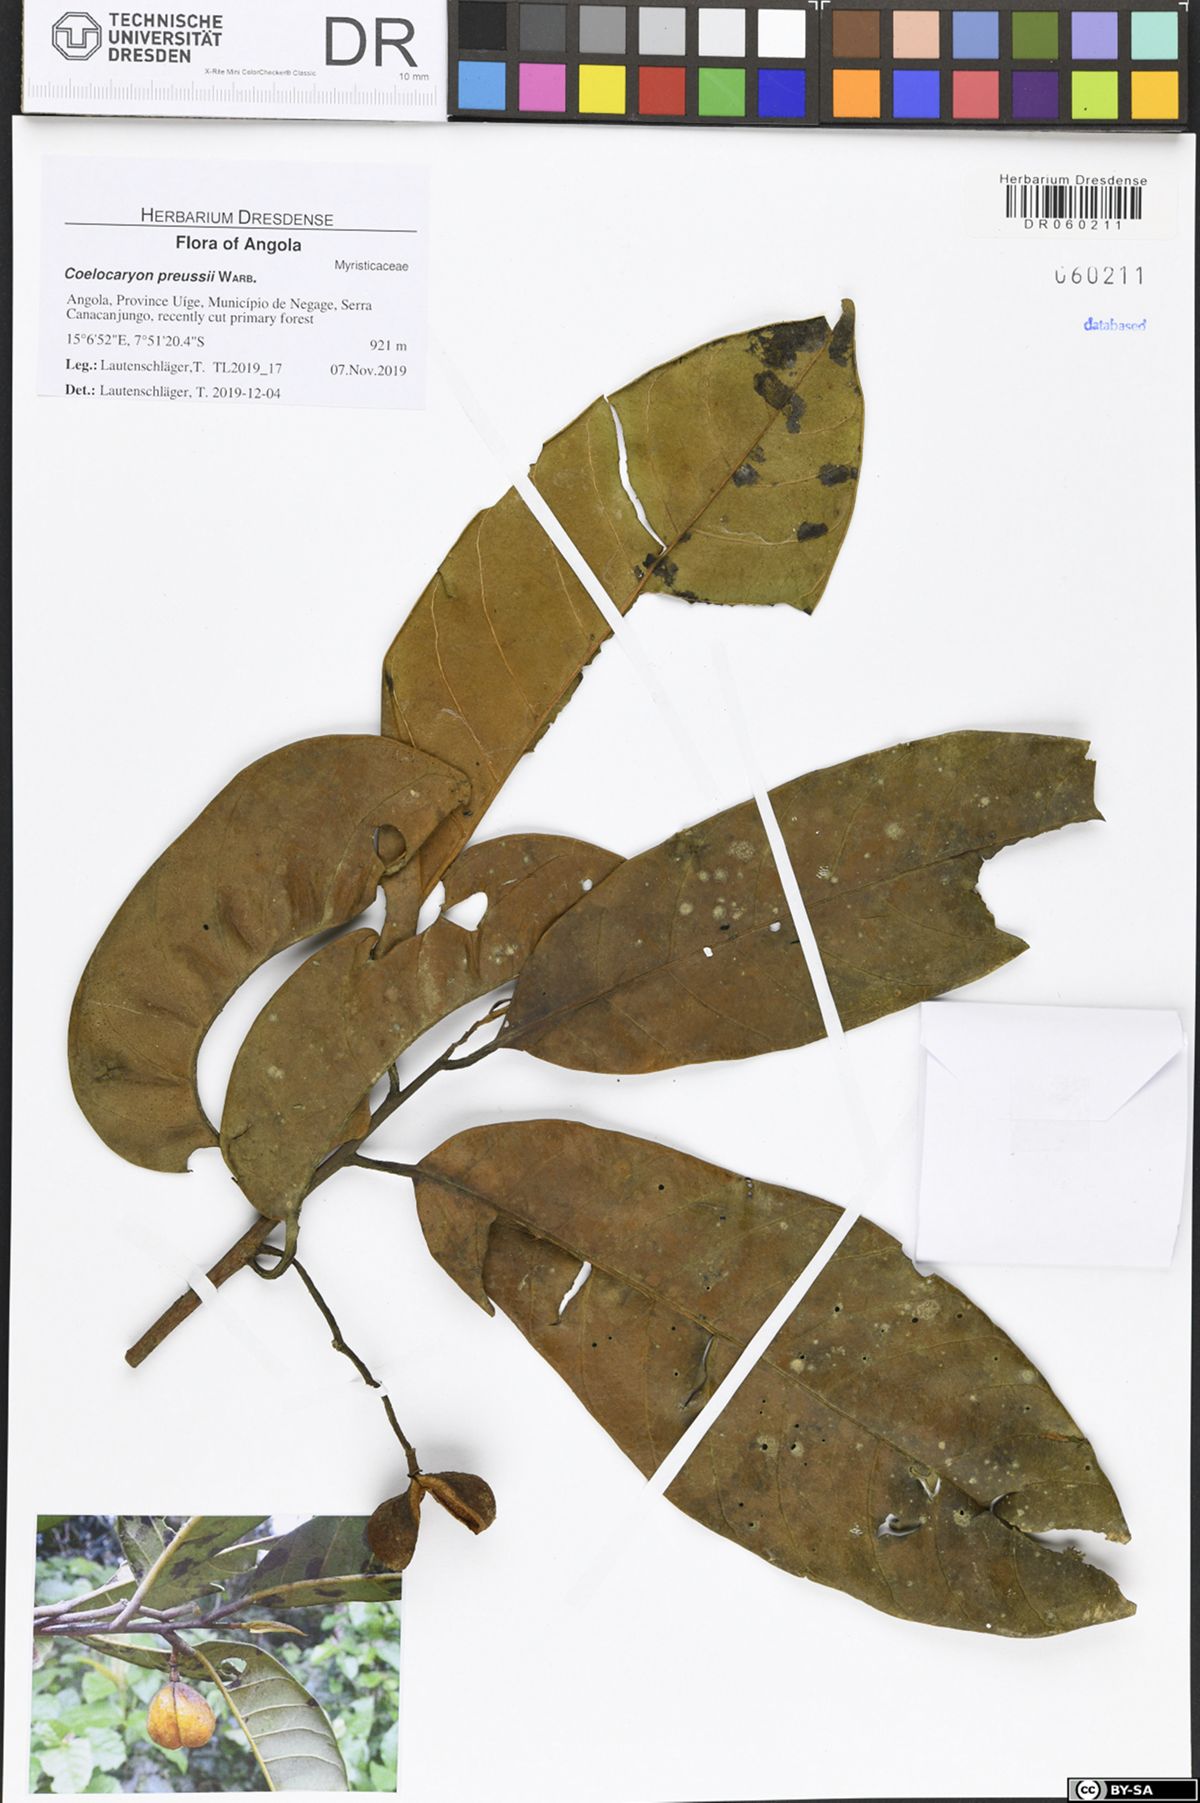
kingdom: Plantae
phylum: Tracheophyta
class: Magnoliopsida
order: Magnoliales
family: Myristicaceae
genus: Coelocaryon
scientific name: Coelocaryon preussii
